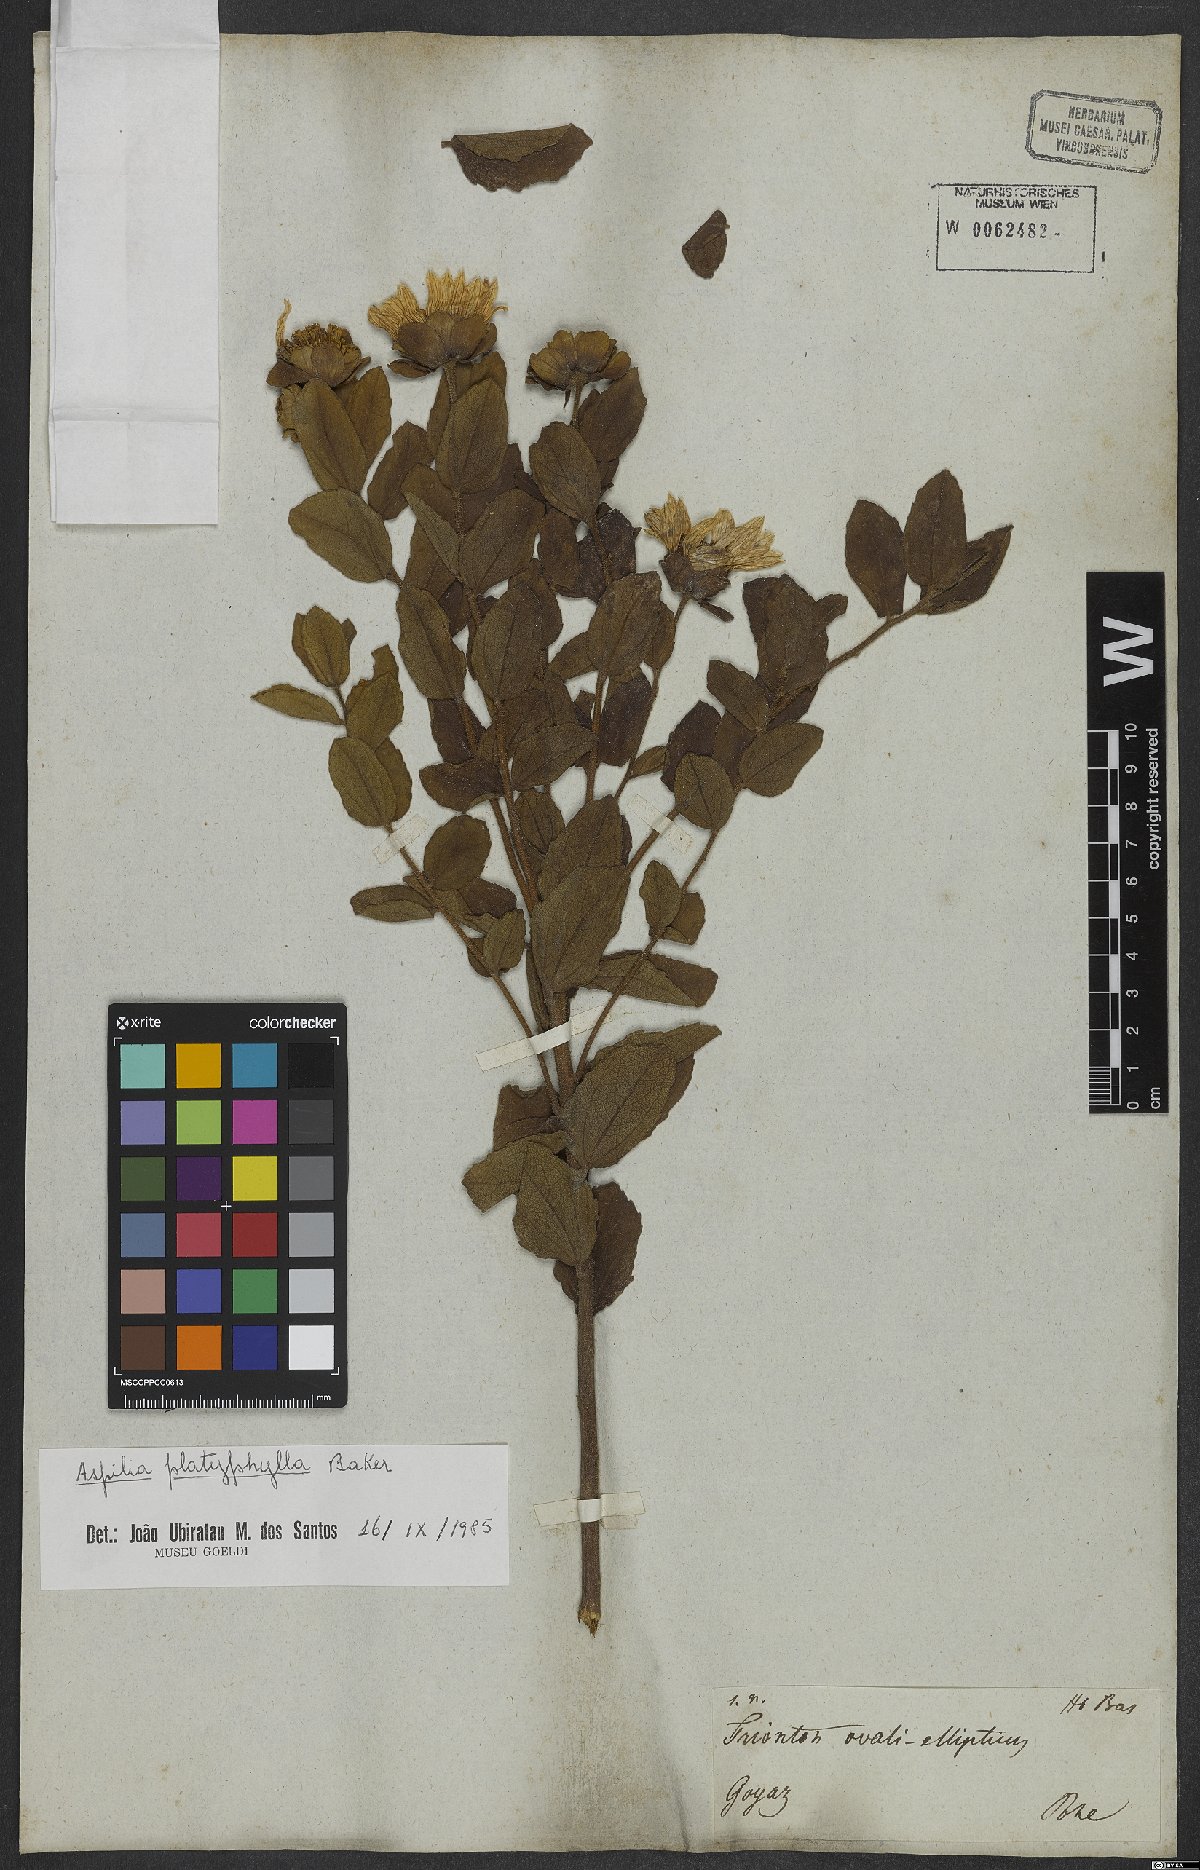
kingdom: Plantae
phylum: Tracheophyta
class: Magnoliopsida
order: Asterales
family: Asteraceae
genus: Aspilia
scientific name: Aspilia platyphylla
